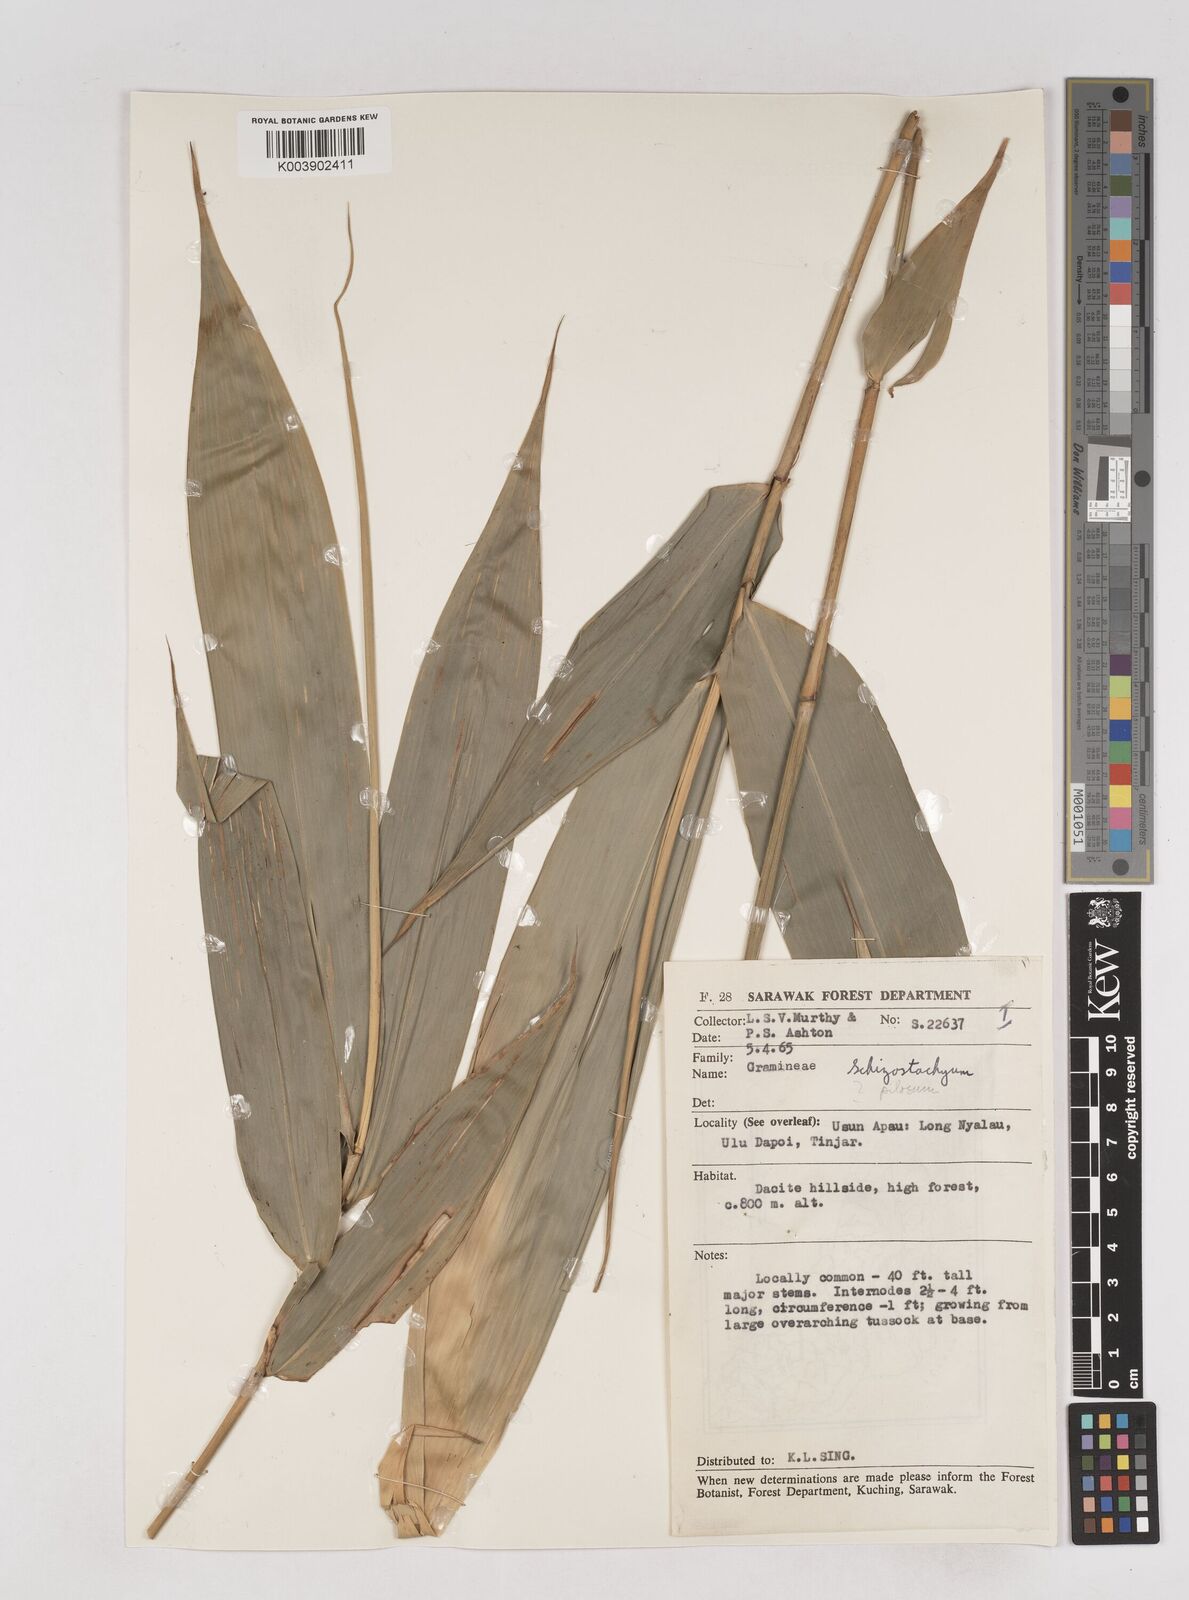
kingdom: Plantae
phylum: Tracheophyta
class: Liliopsida
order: Poales
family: Poaceae
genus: Schizostachyum
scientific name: Schizostachyum
